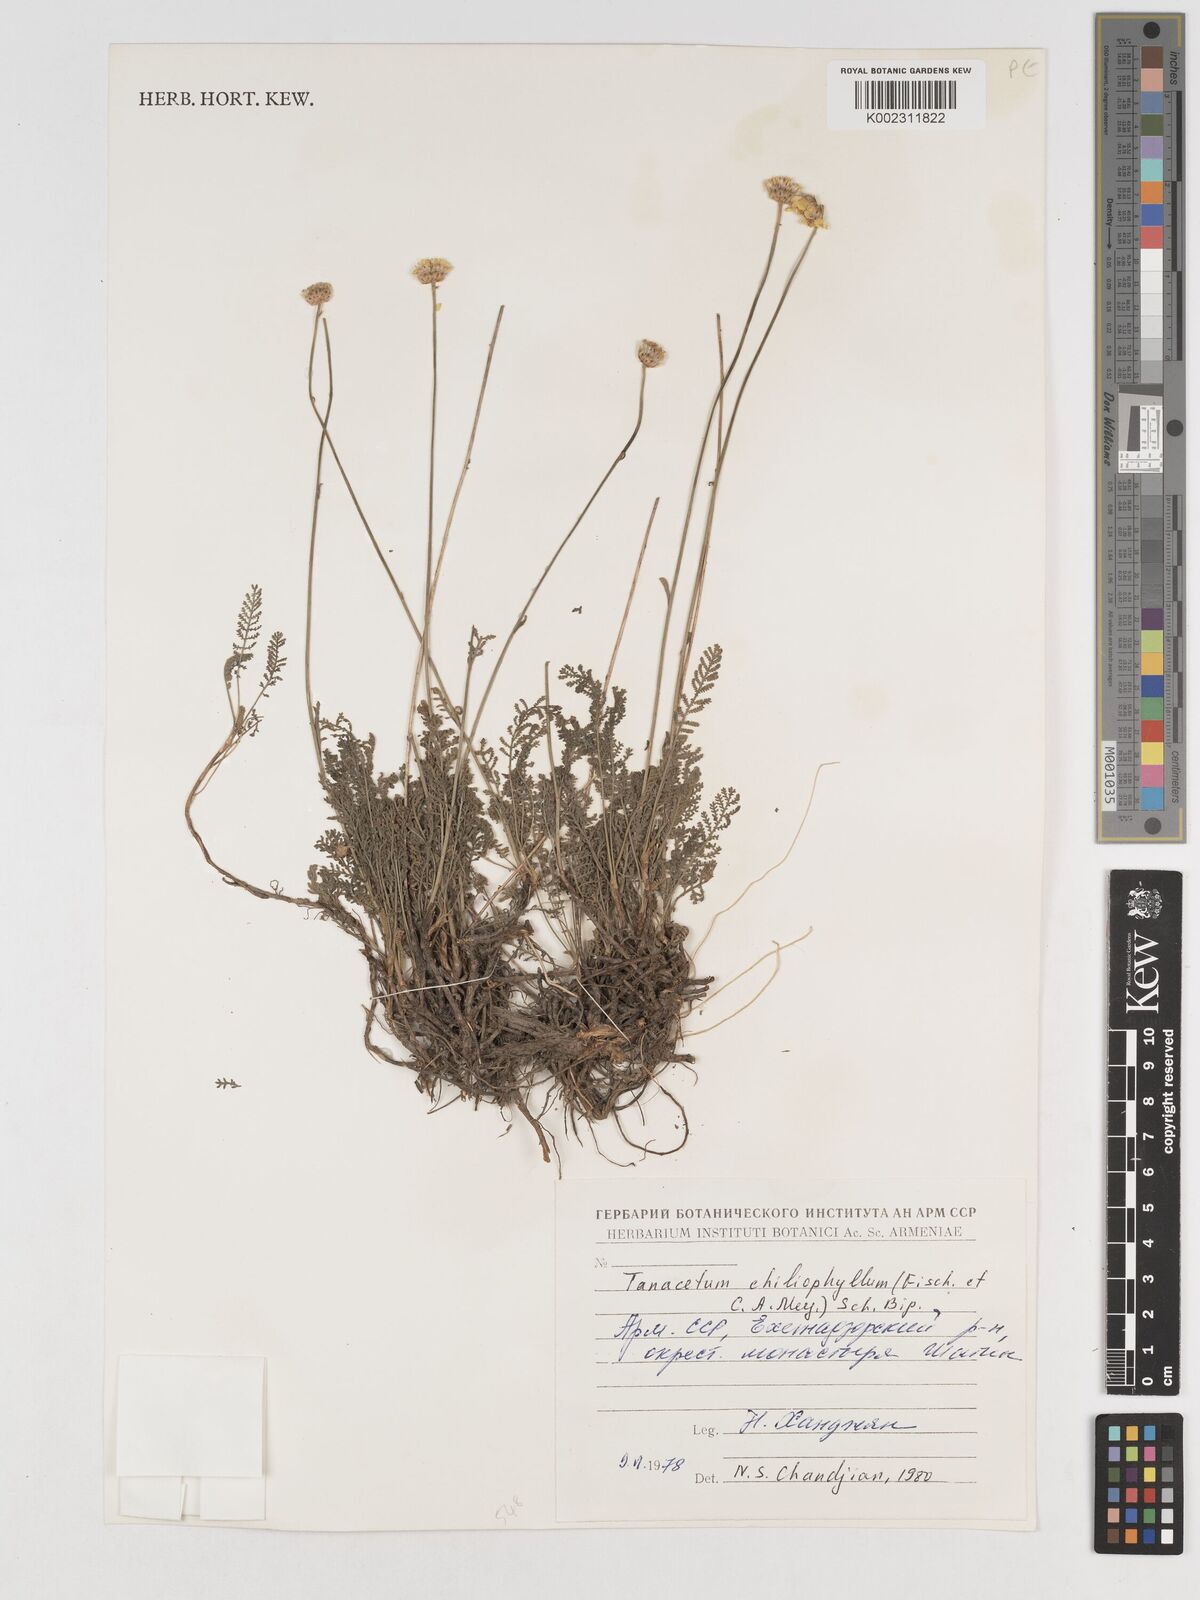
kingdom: Plantae
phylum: Tracheophyta
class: Magnoliopsida
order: Asterales
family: Asteraceae
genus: Tanacetum
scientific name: Tanacetum aureum
